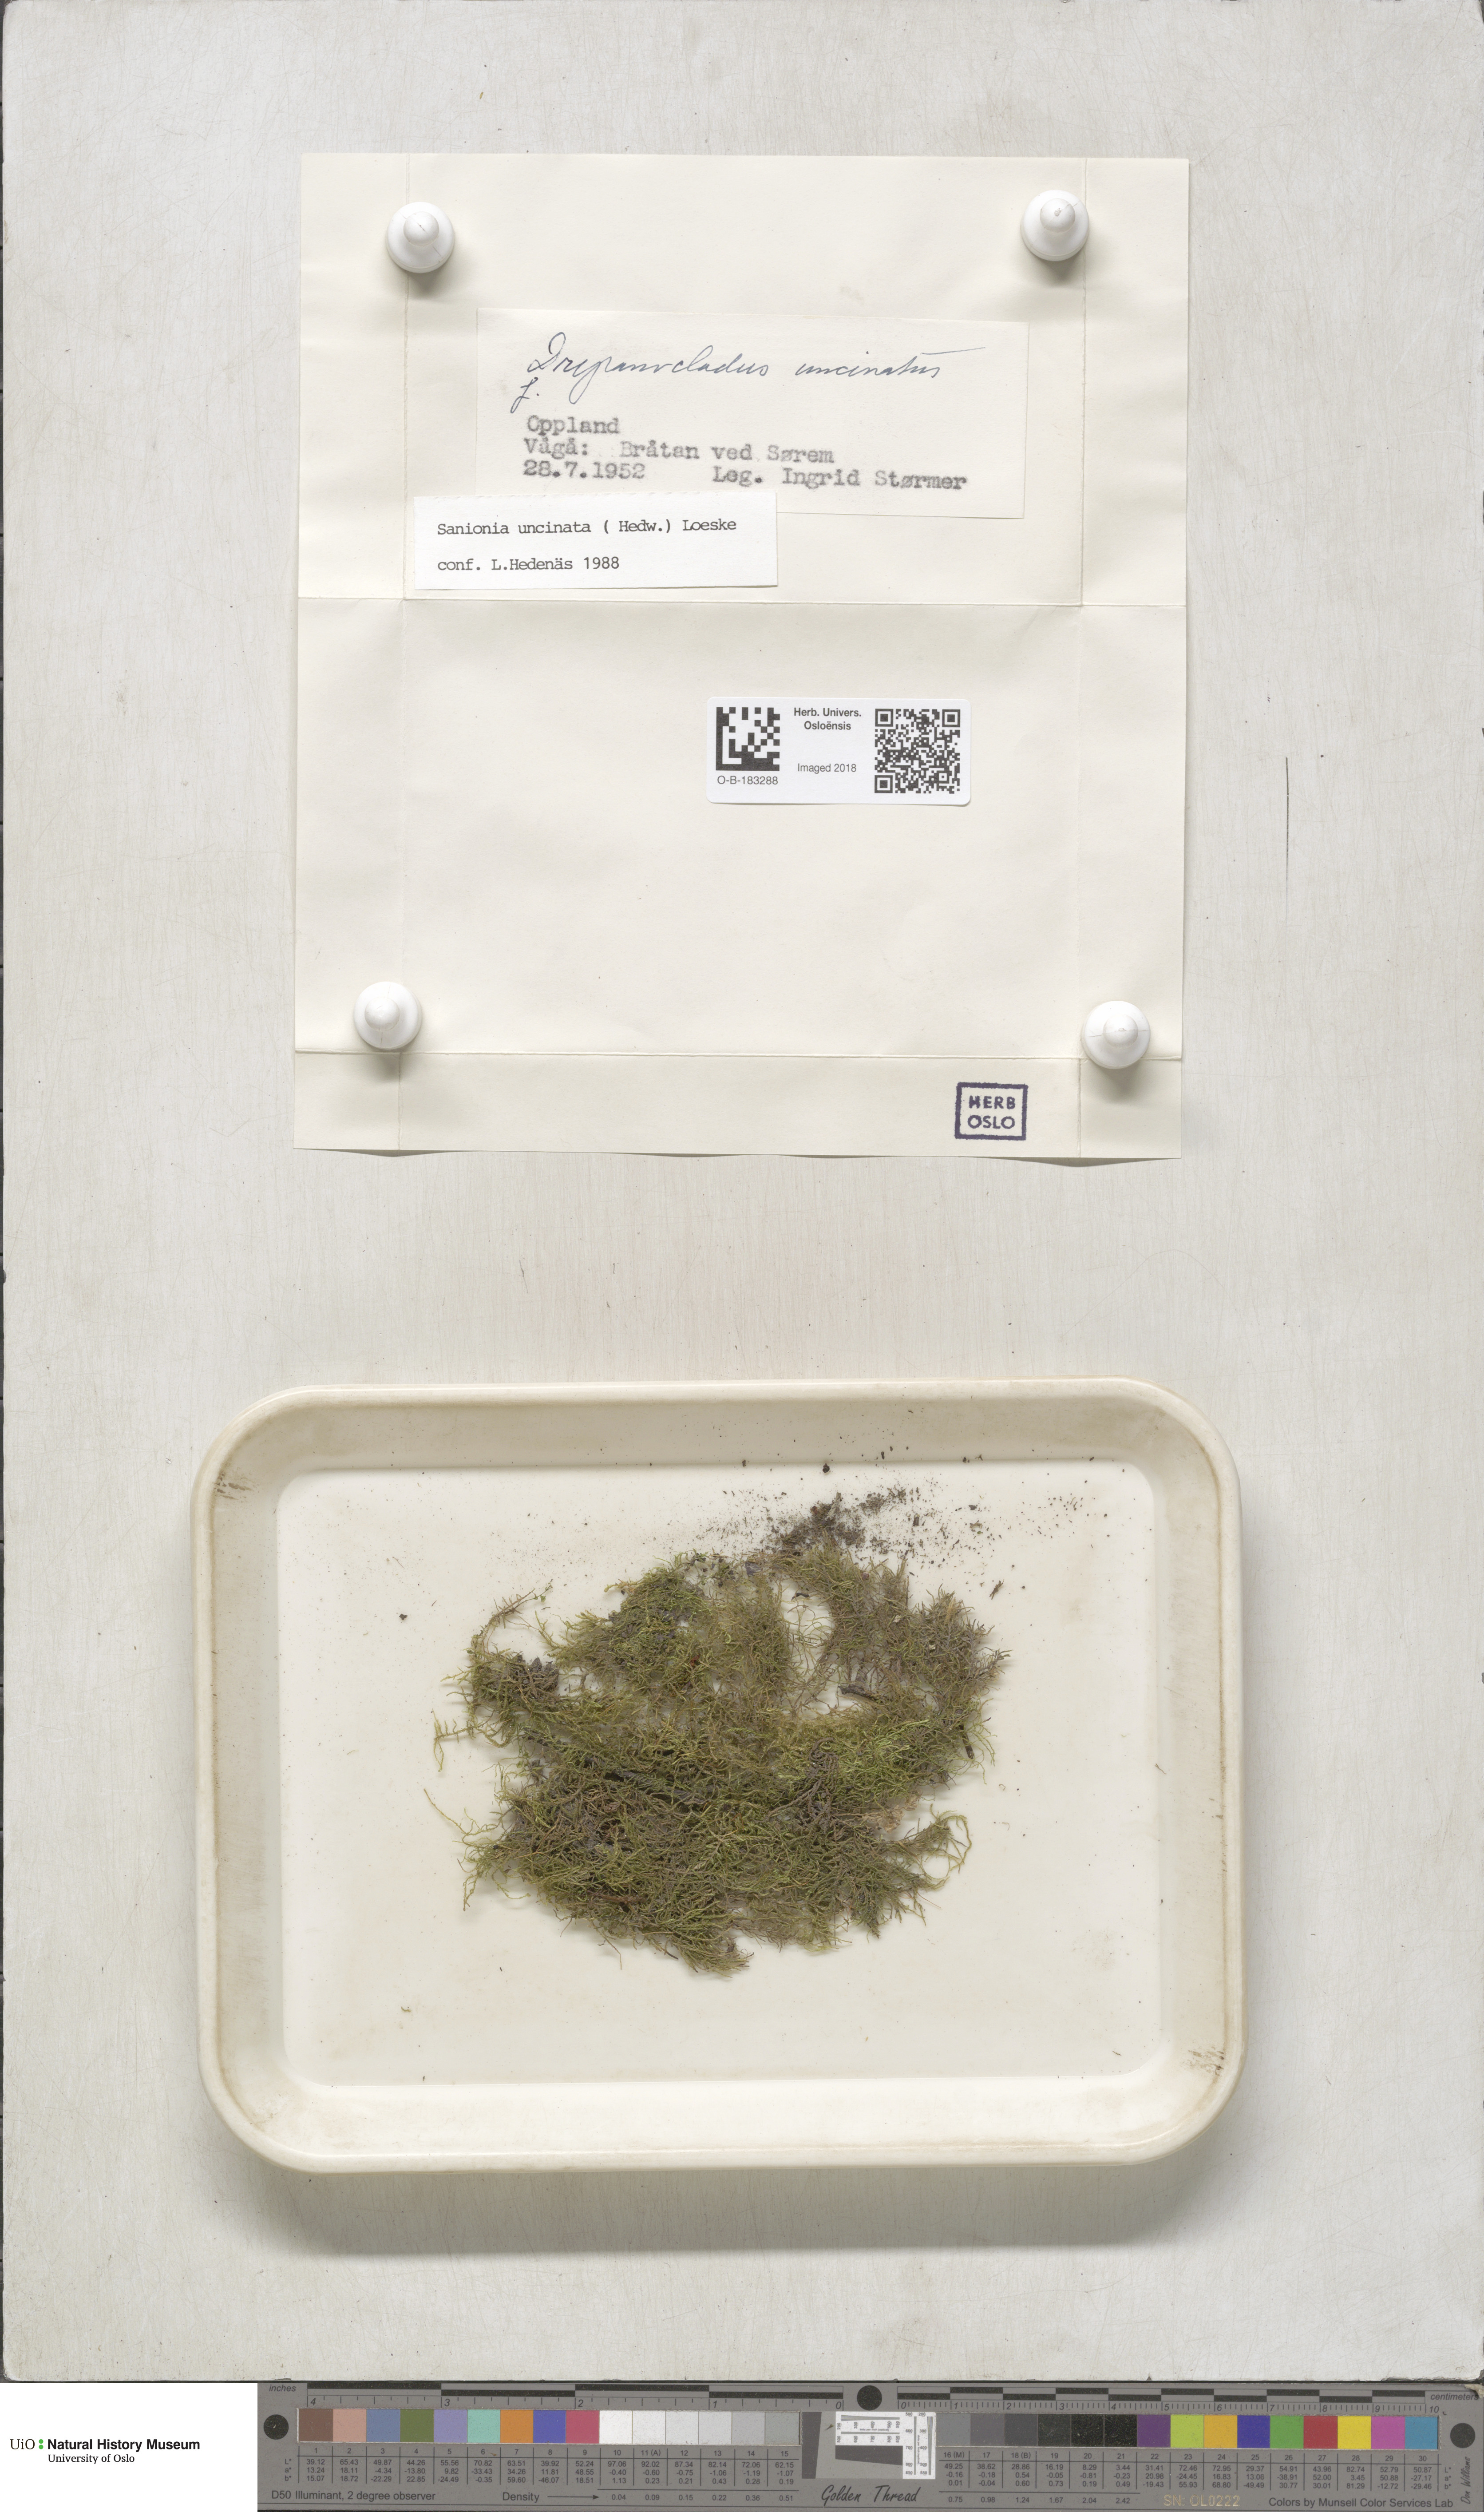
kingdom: Plantae
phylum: Bryophyta
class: Bryopsida
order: Hypnales
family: Scorpidiaceae
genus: Sanionia
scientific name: Sanionia uncinata
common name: Sickle moss
